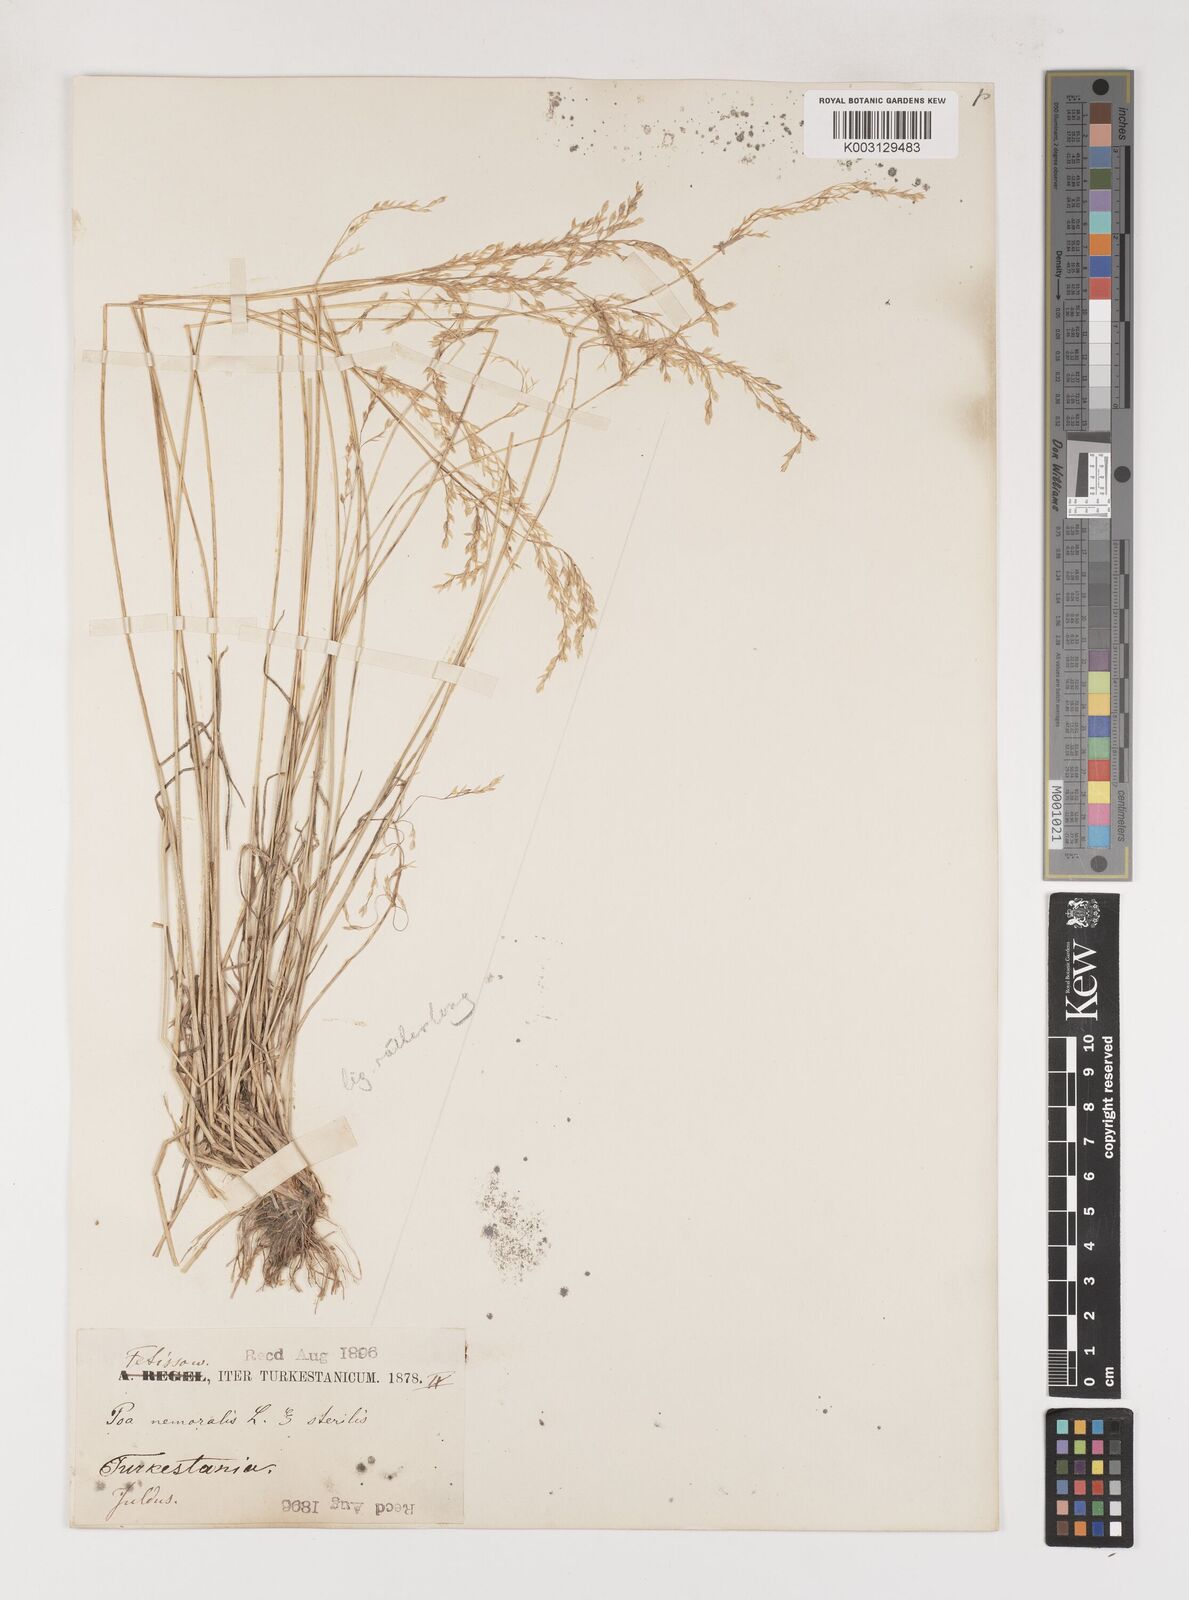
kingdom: Plantae
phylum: Tracheophyta
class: Liliopsida
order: Poales
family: Poaceae
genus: Poa
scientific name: Poa glauca
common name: Glaucous bluegrass
